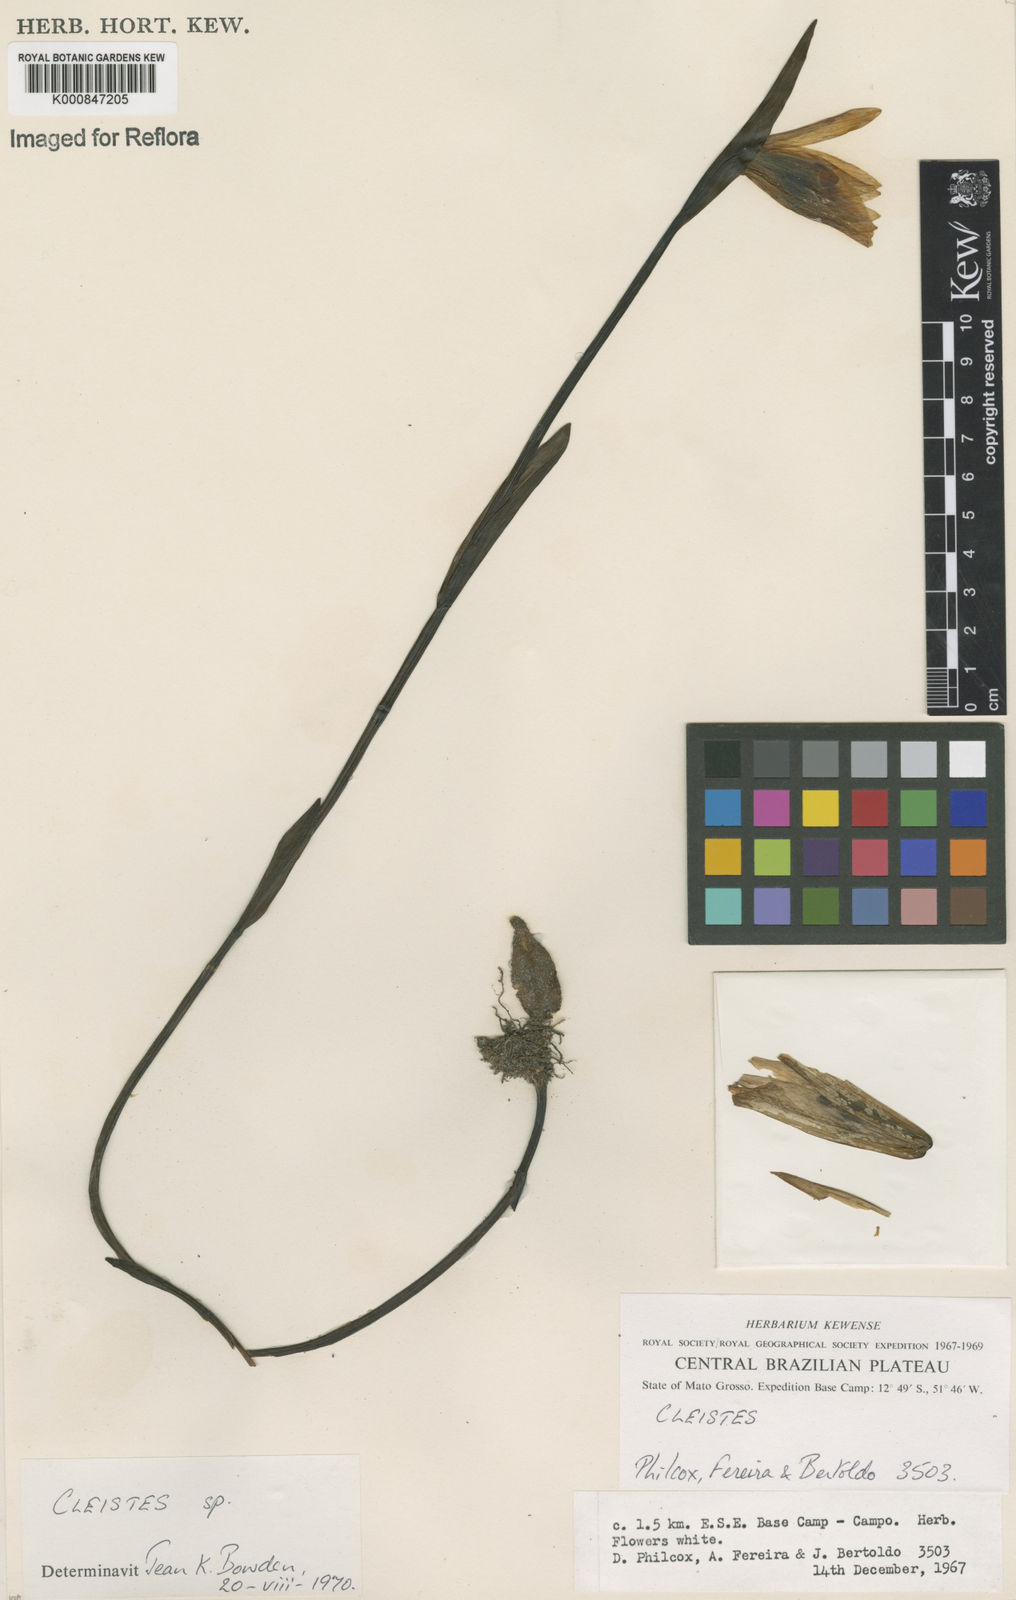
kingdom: Plantae
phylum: Tracheophyta
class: Liliopsida
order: Asparagales
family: Orchidaceae
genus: Cleistes
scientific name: Cleistes
